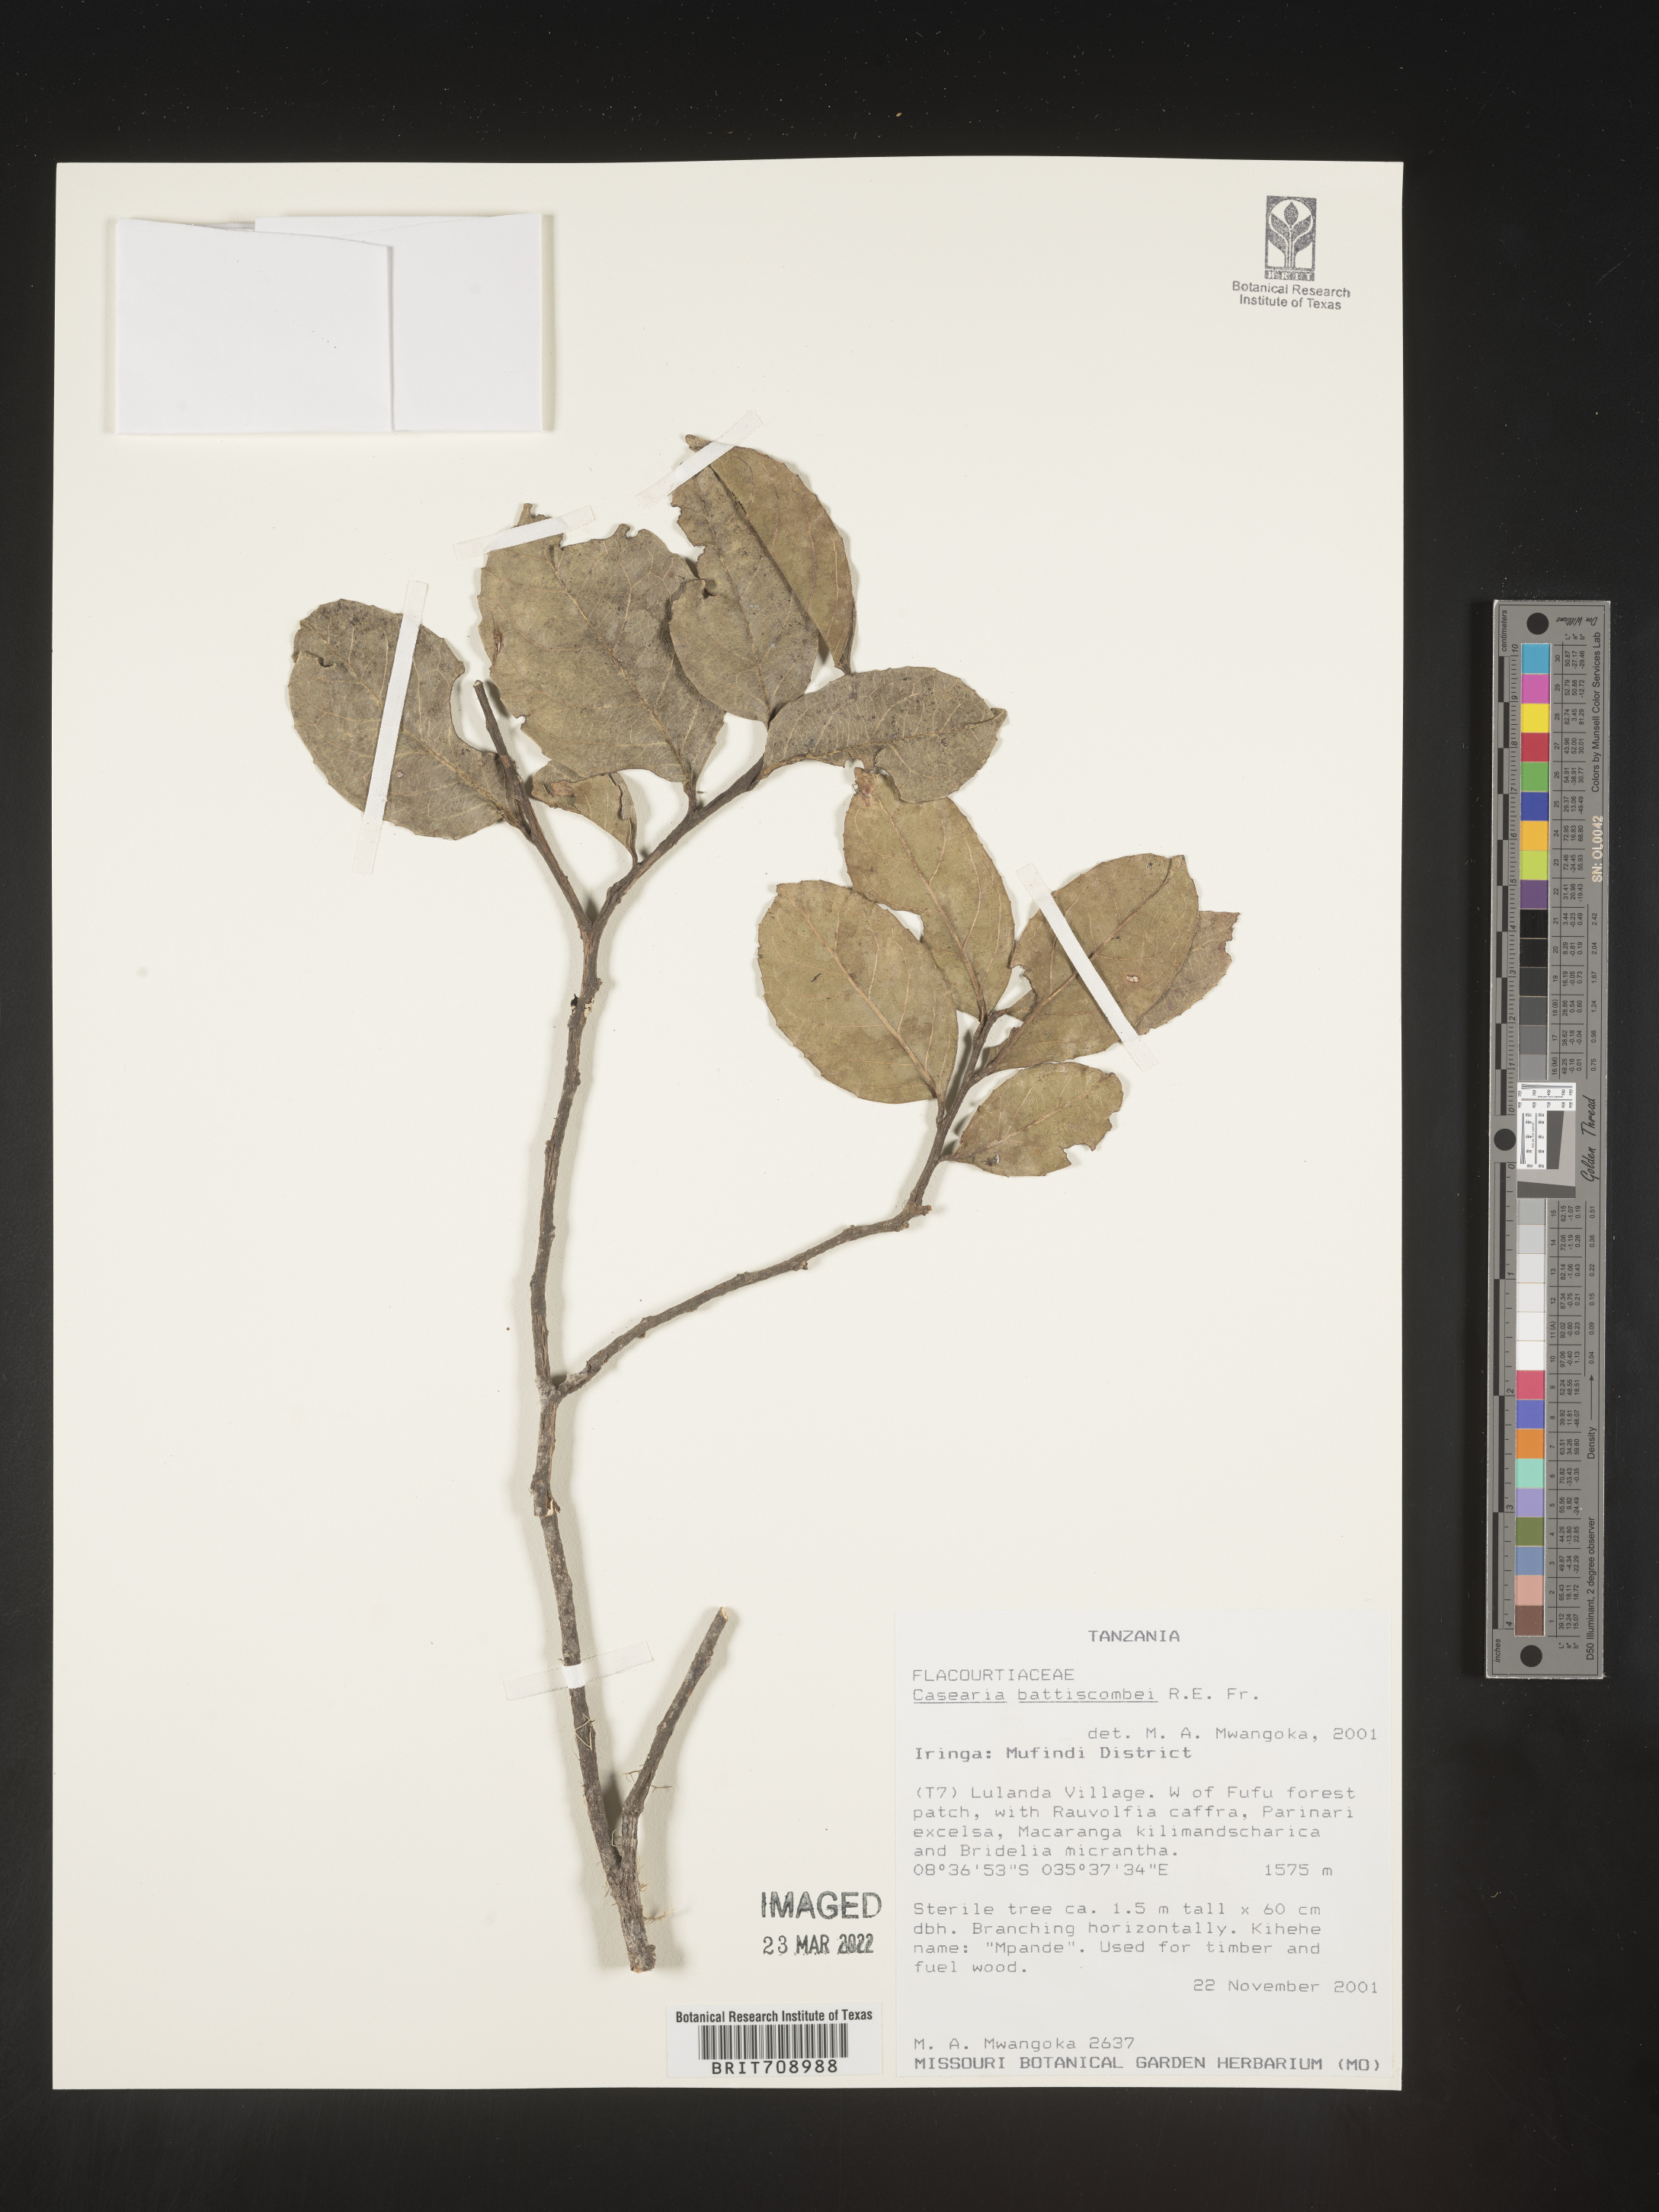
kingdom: Plantae
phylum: Tracheophyta
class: Magnoliopsida
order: Malpighiales
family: Salicaceae
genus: Casearia
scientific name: Casearia
